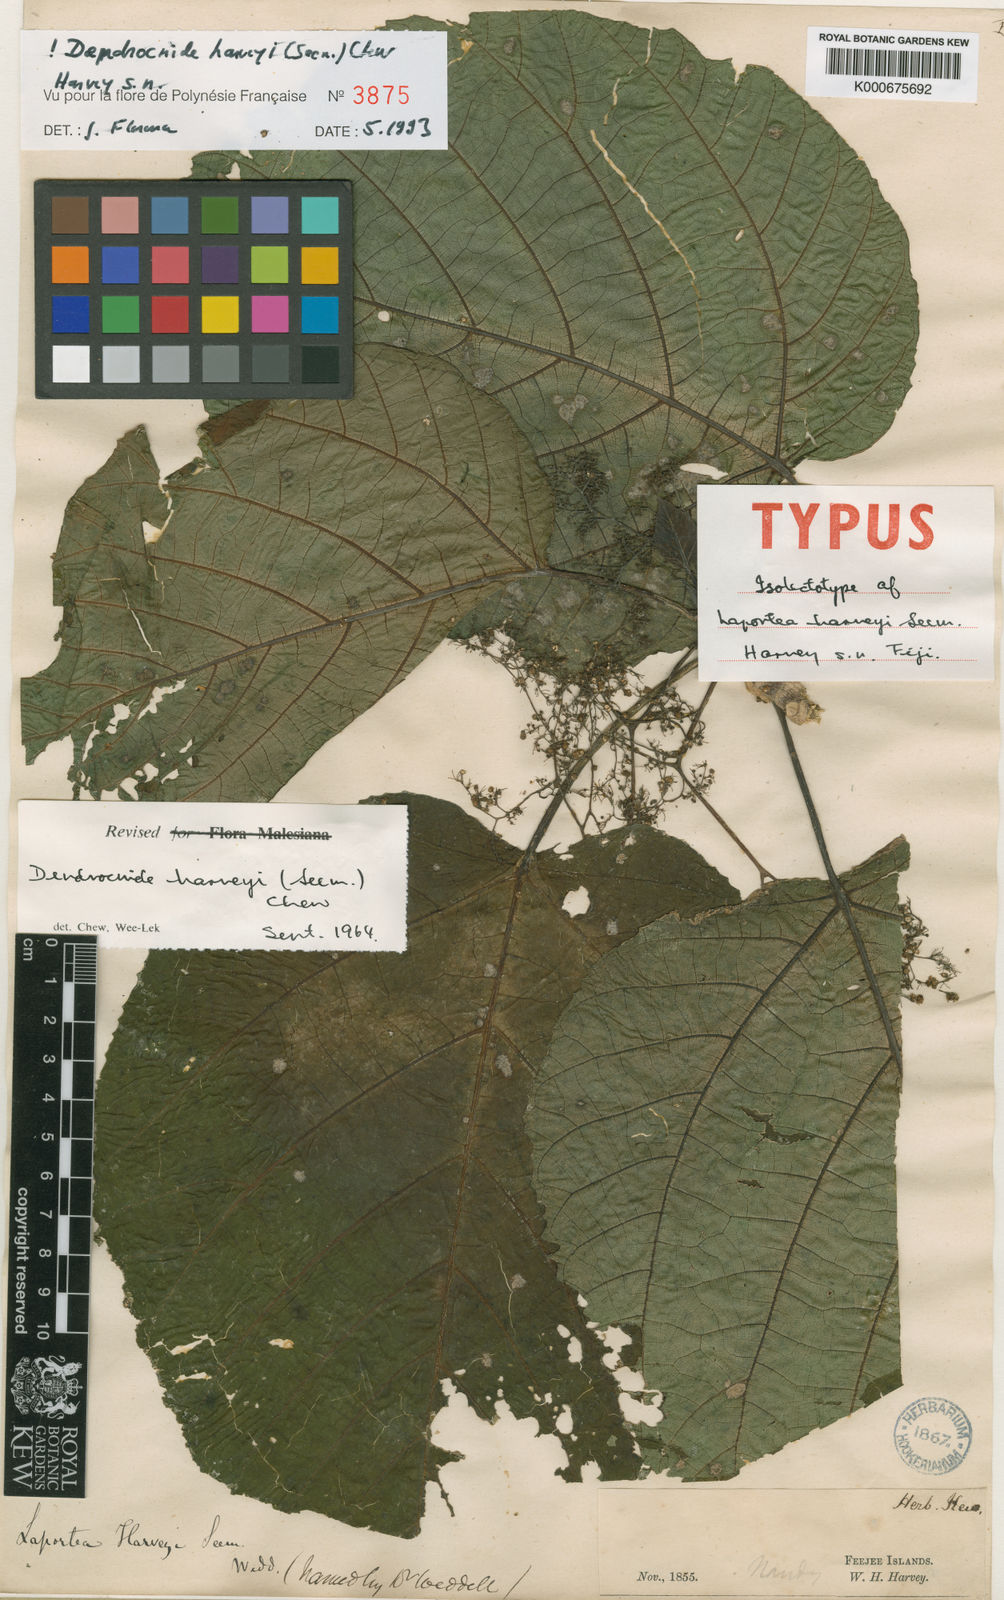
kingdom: Plantae
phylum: Tracheophyta
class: Magnoliopsida
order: Rosales
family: Urticaceae
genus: Dendrocnide
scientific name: Dendrocnide harveyi
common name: Stinging nettle tree
